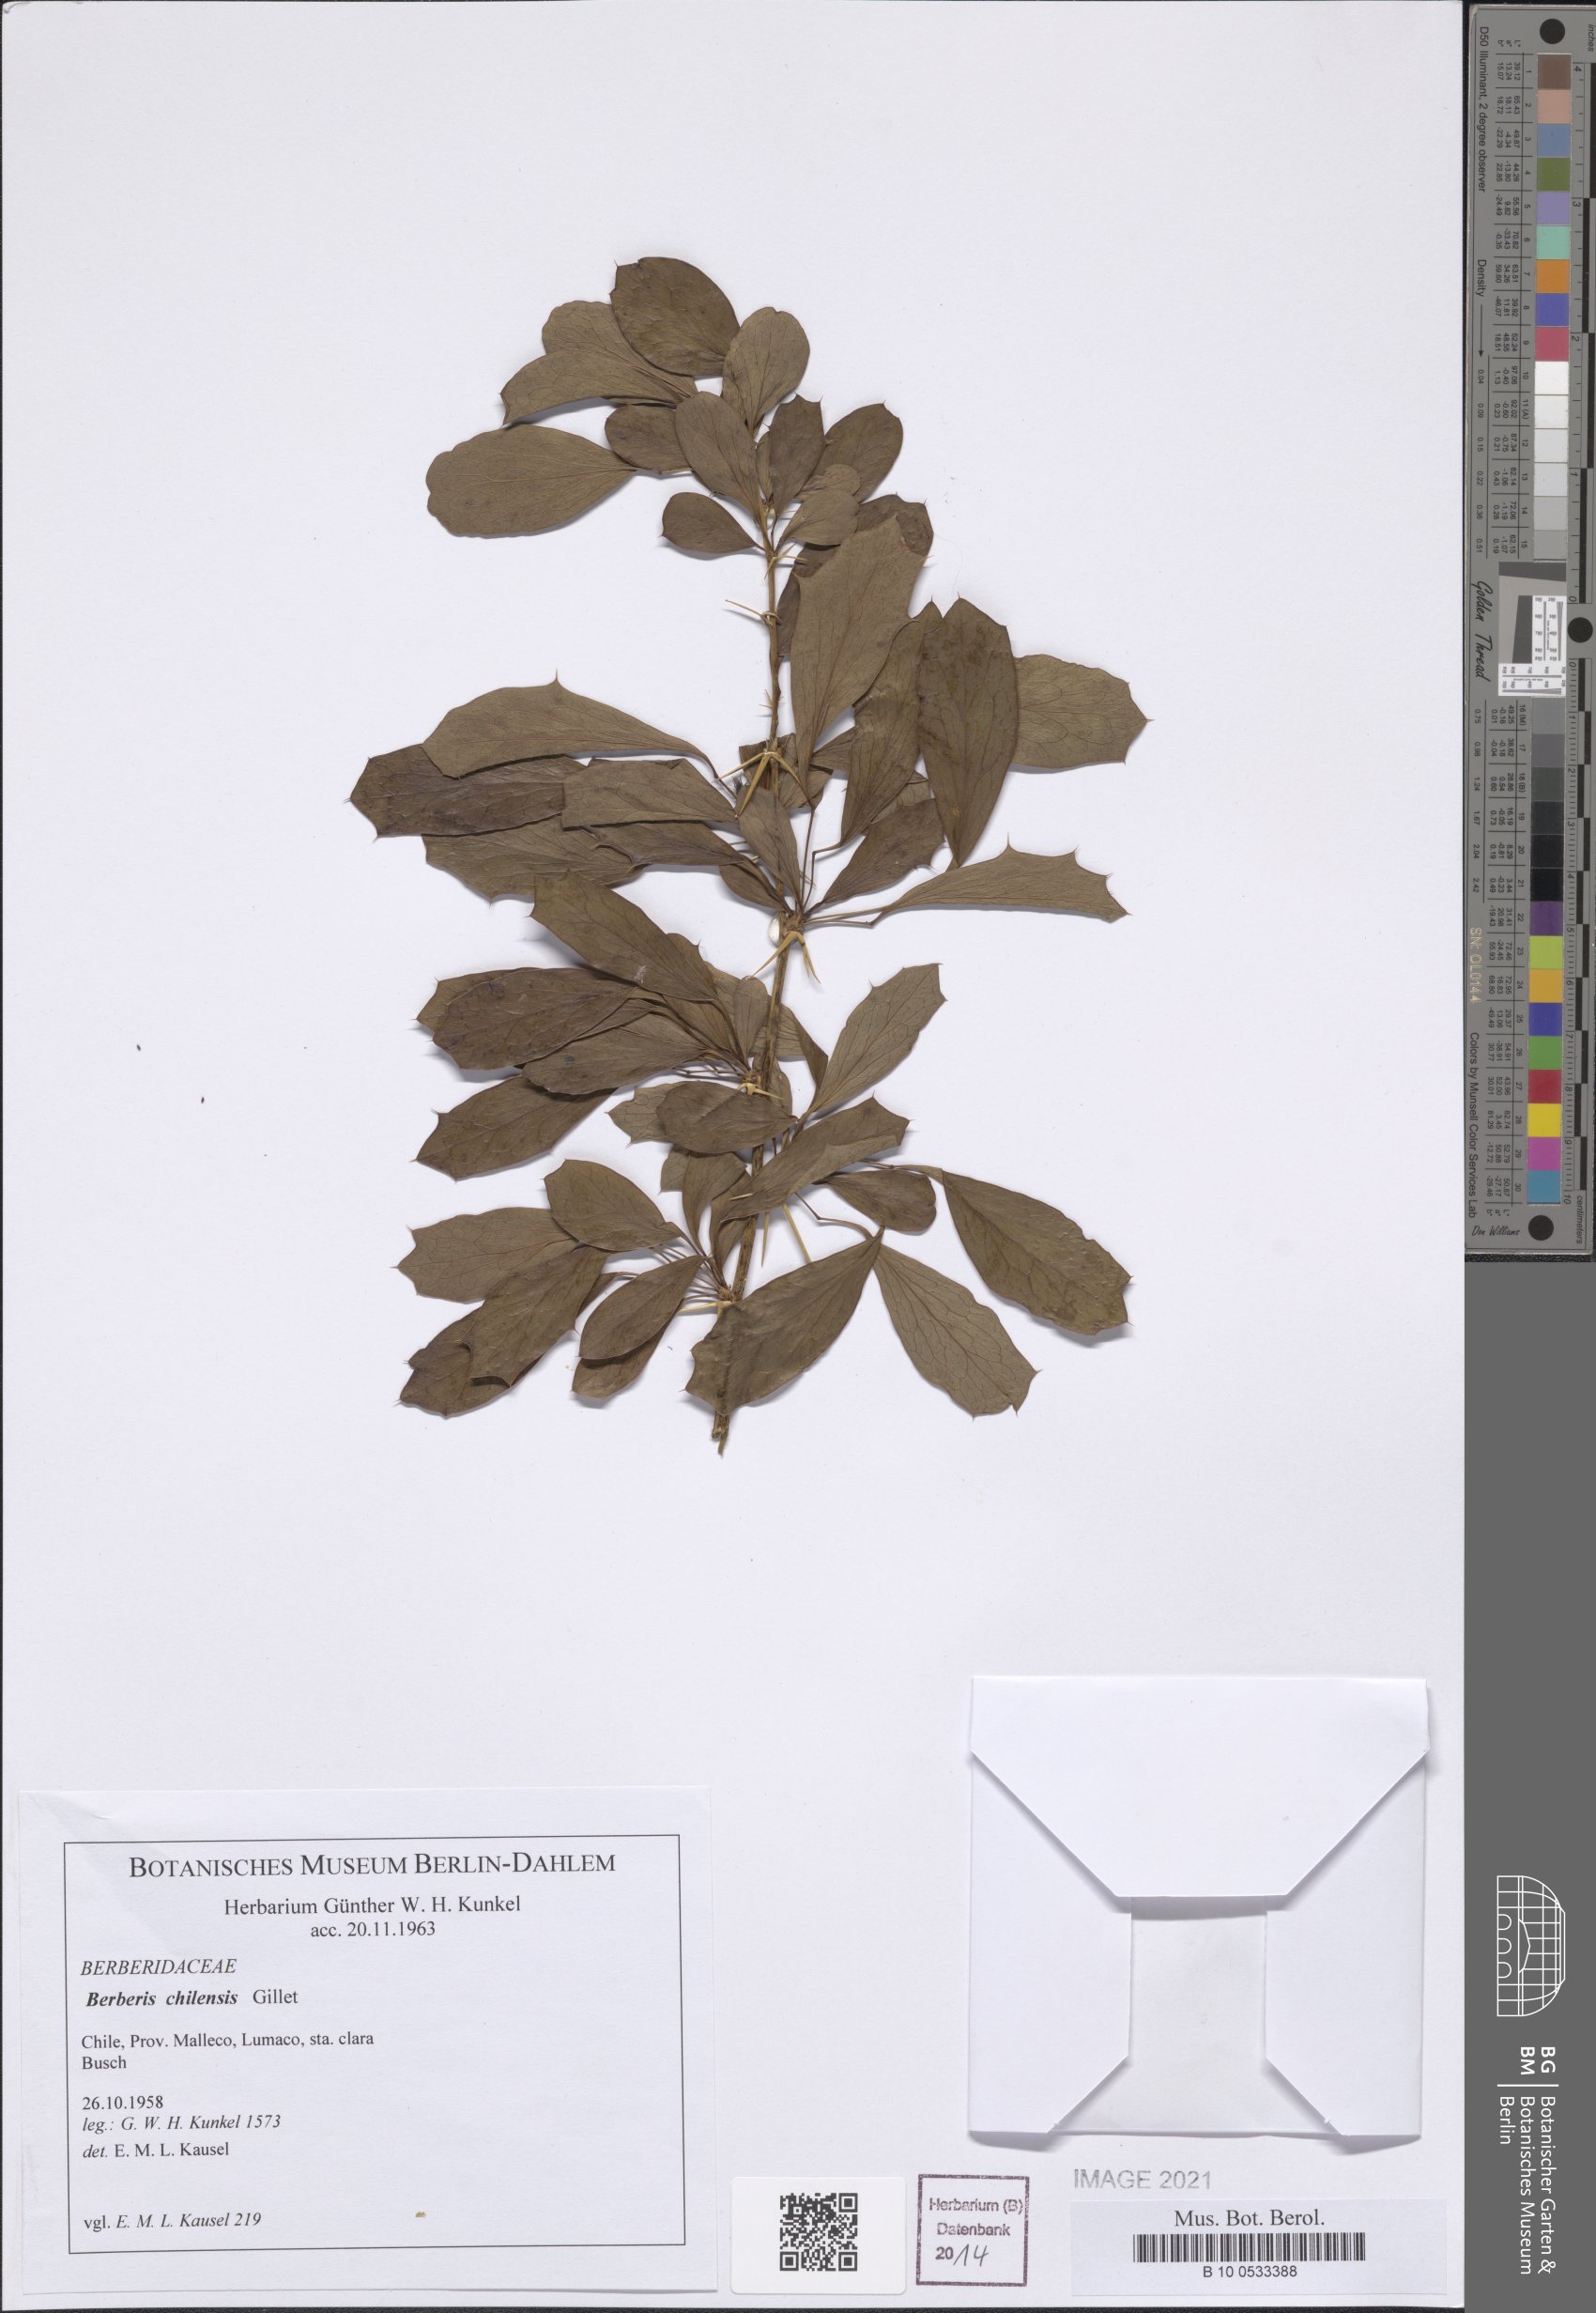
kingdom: Plantae
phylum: Tracheophyta
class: Magnoliopsida
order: Ranunculales
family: Berberidaceae
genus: Berberis
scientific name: Berberis chilensis
